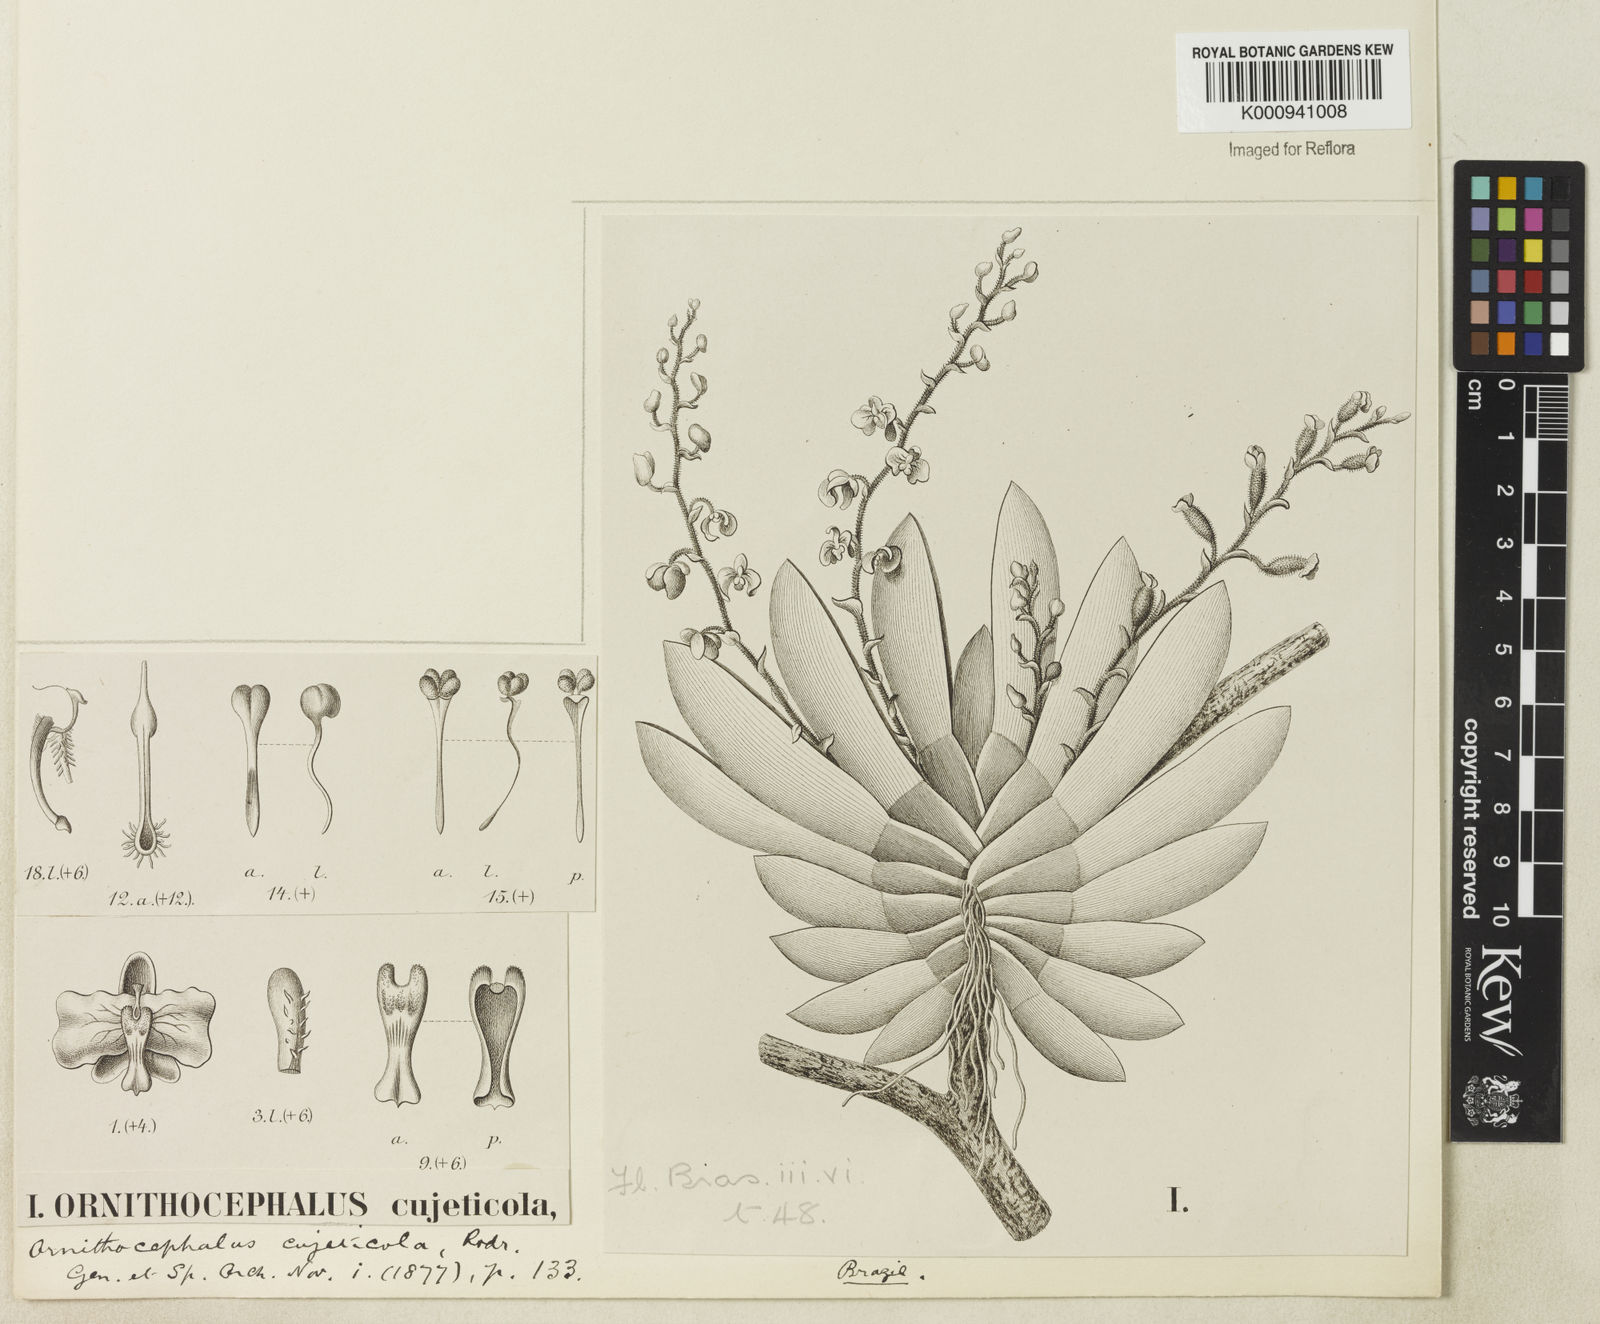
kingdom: Plantae
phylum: Tracheophyta
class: Liliopsida
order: Asparagales
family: Orchidaceae
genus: Ornithocephalus
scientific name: Ornithocephalus cujeticola
